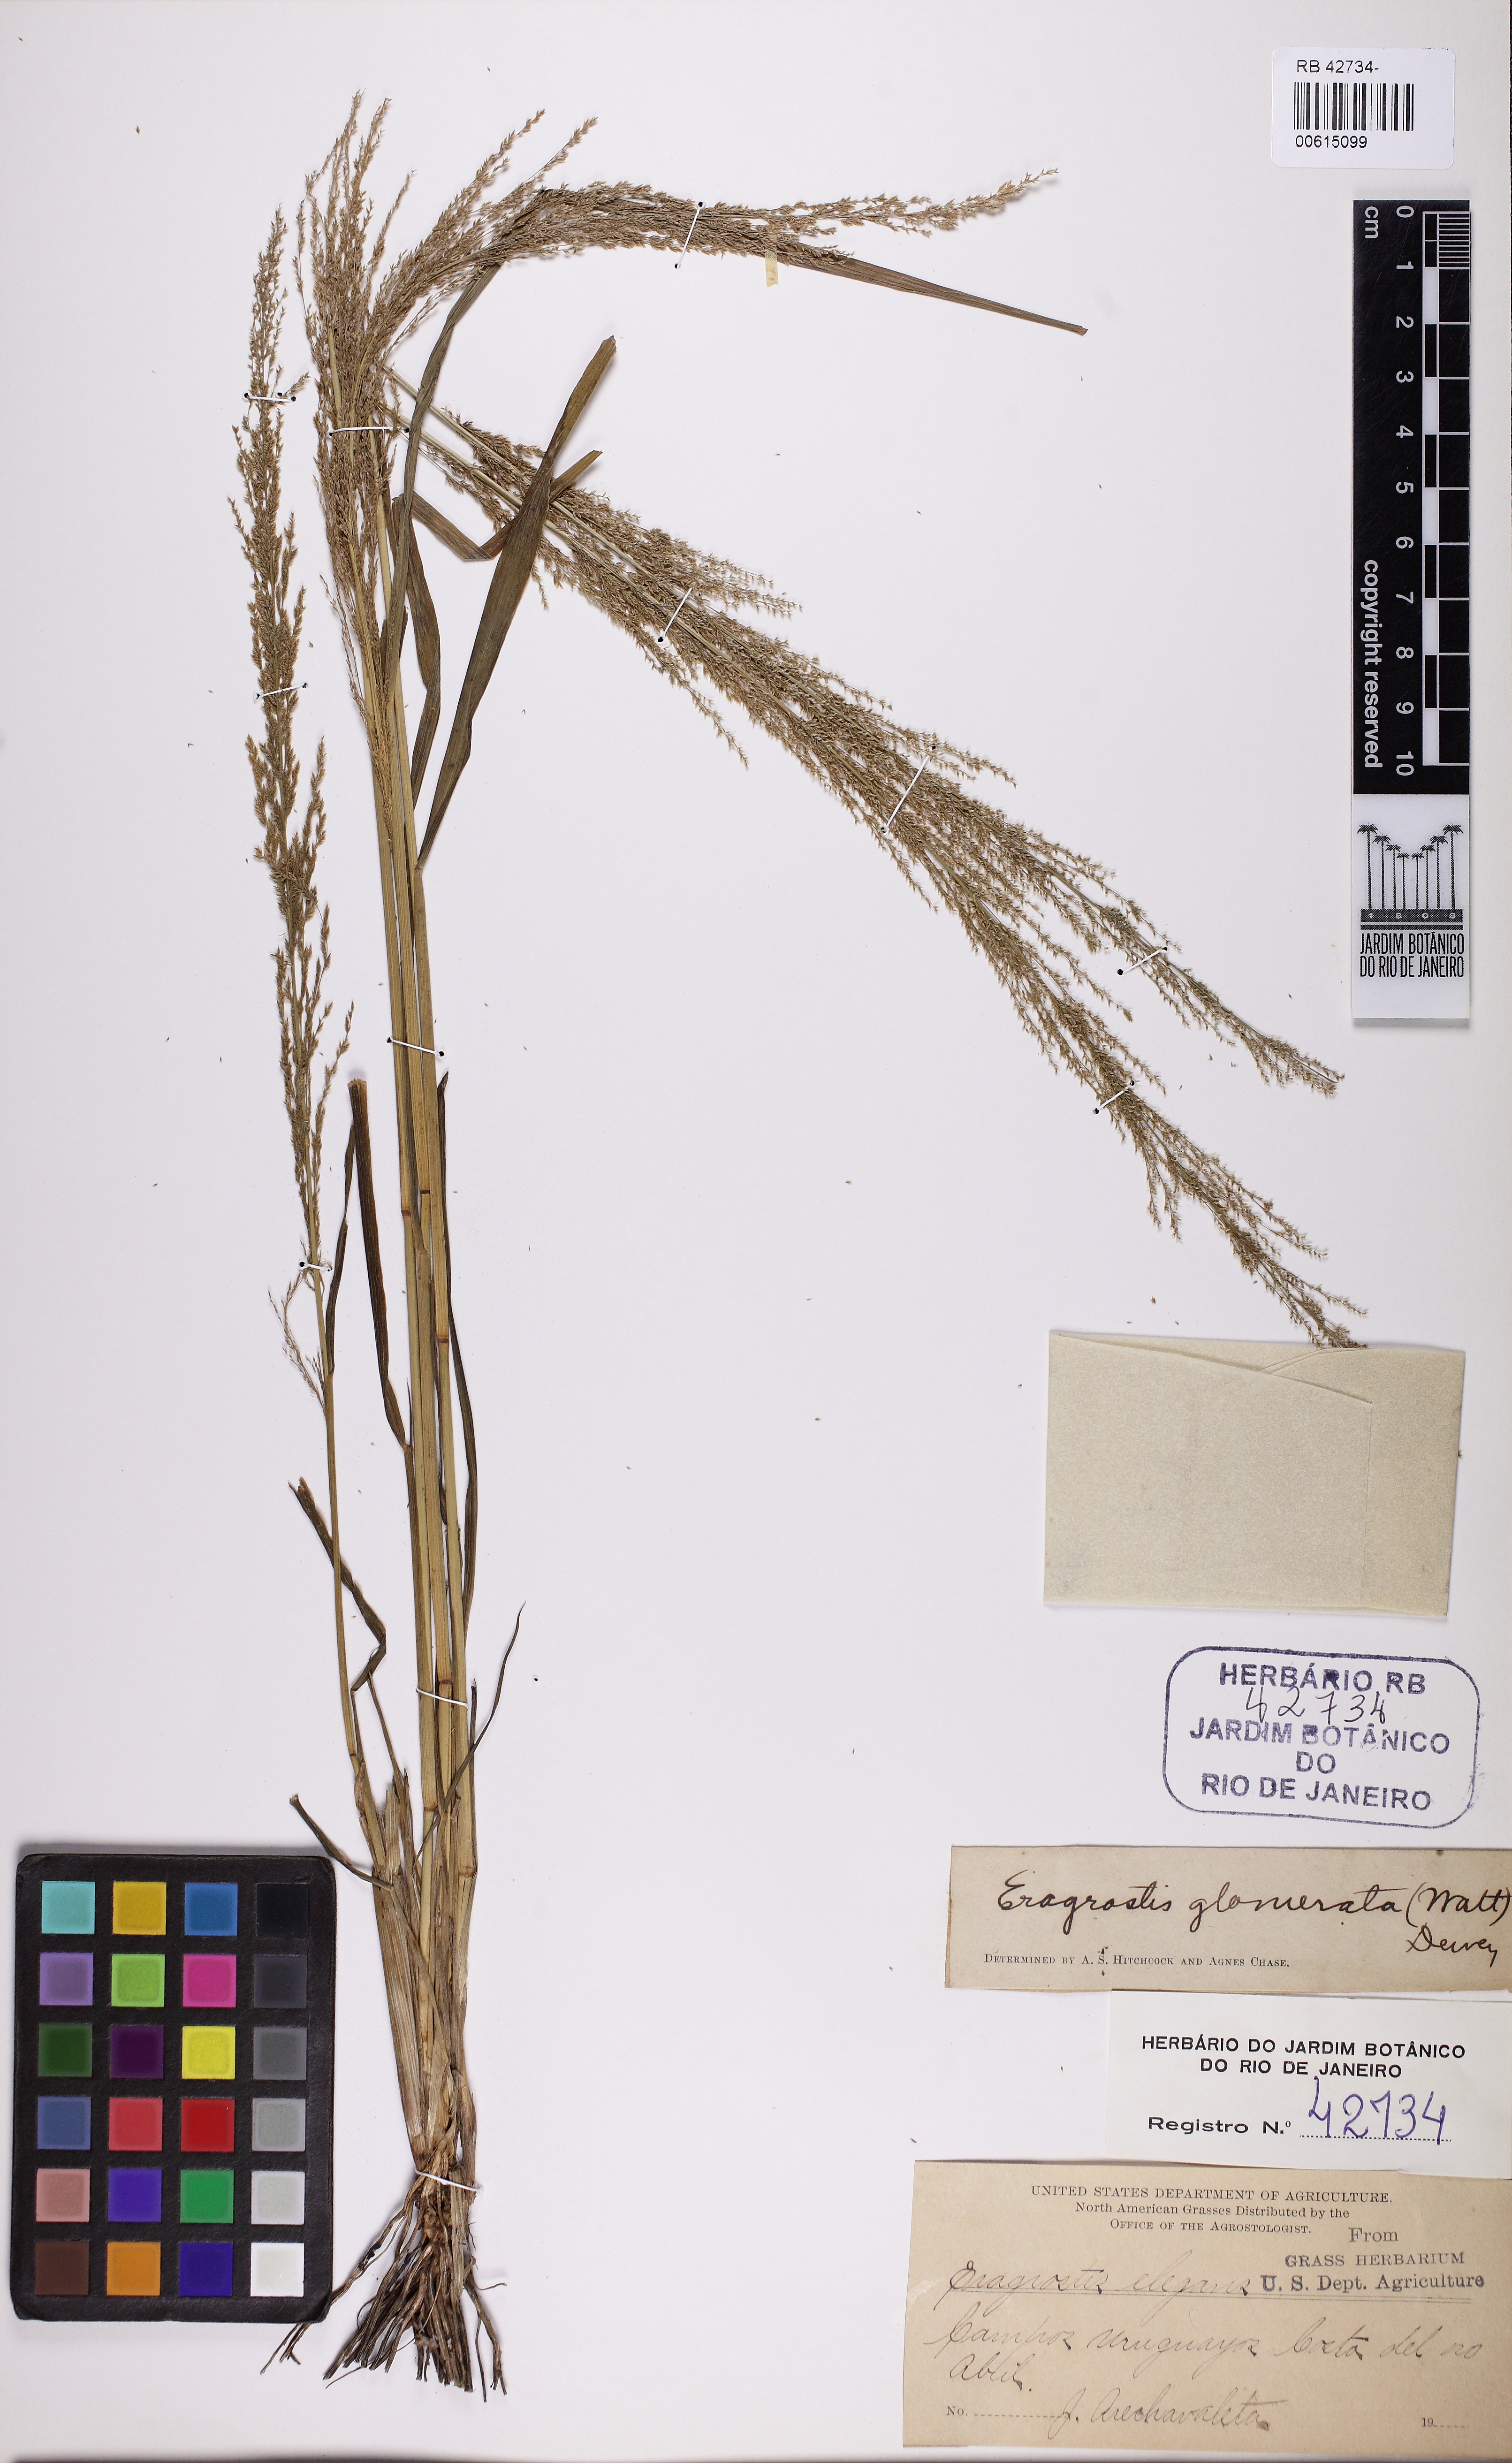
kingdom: Plantae
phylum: Tracheophyta
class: Liliopsida
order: Poales
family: Poaceae
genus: Eragrostis
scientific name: Eragrostis japonica
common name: Pond lovegrass
